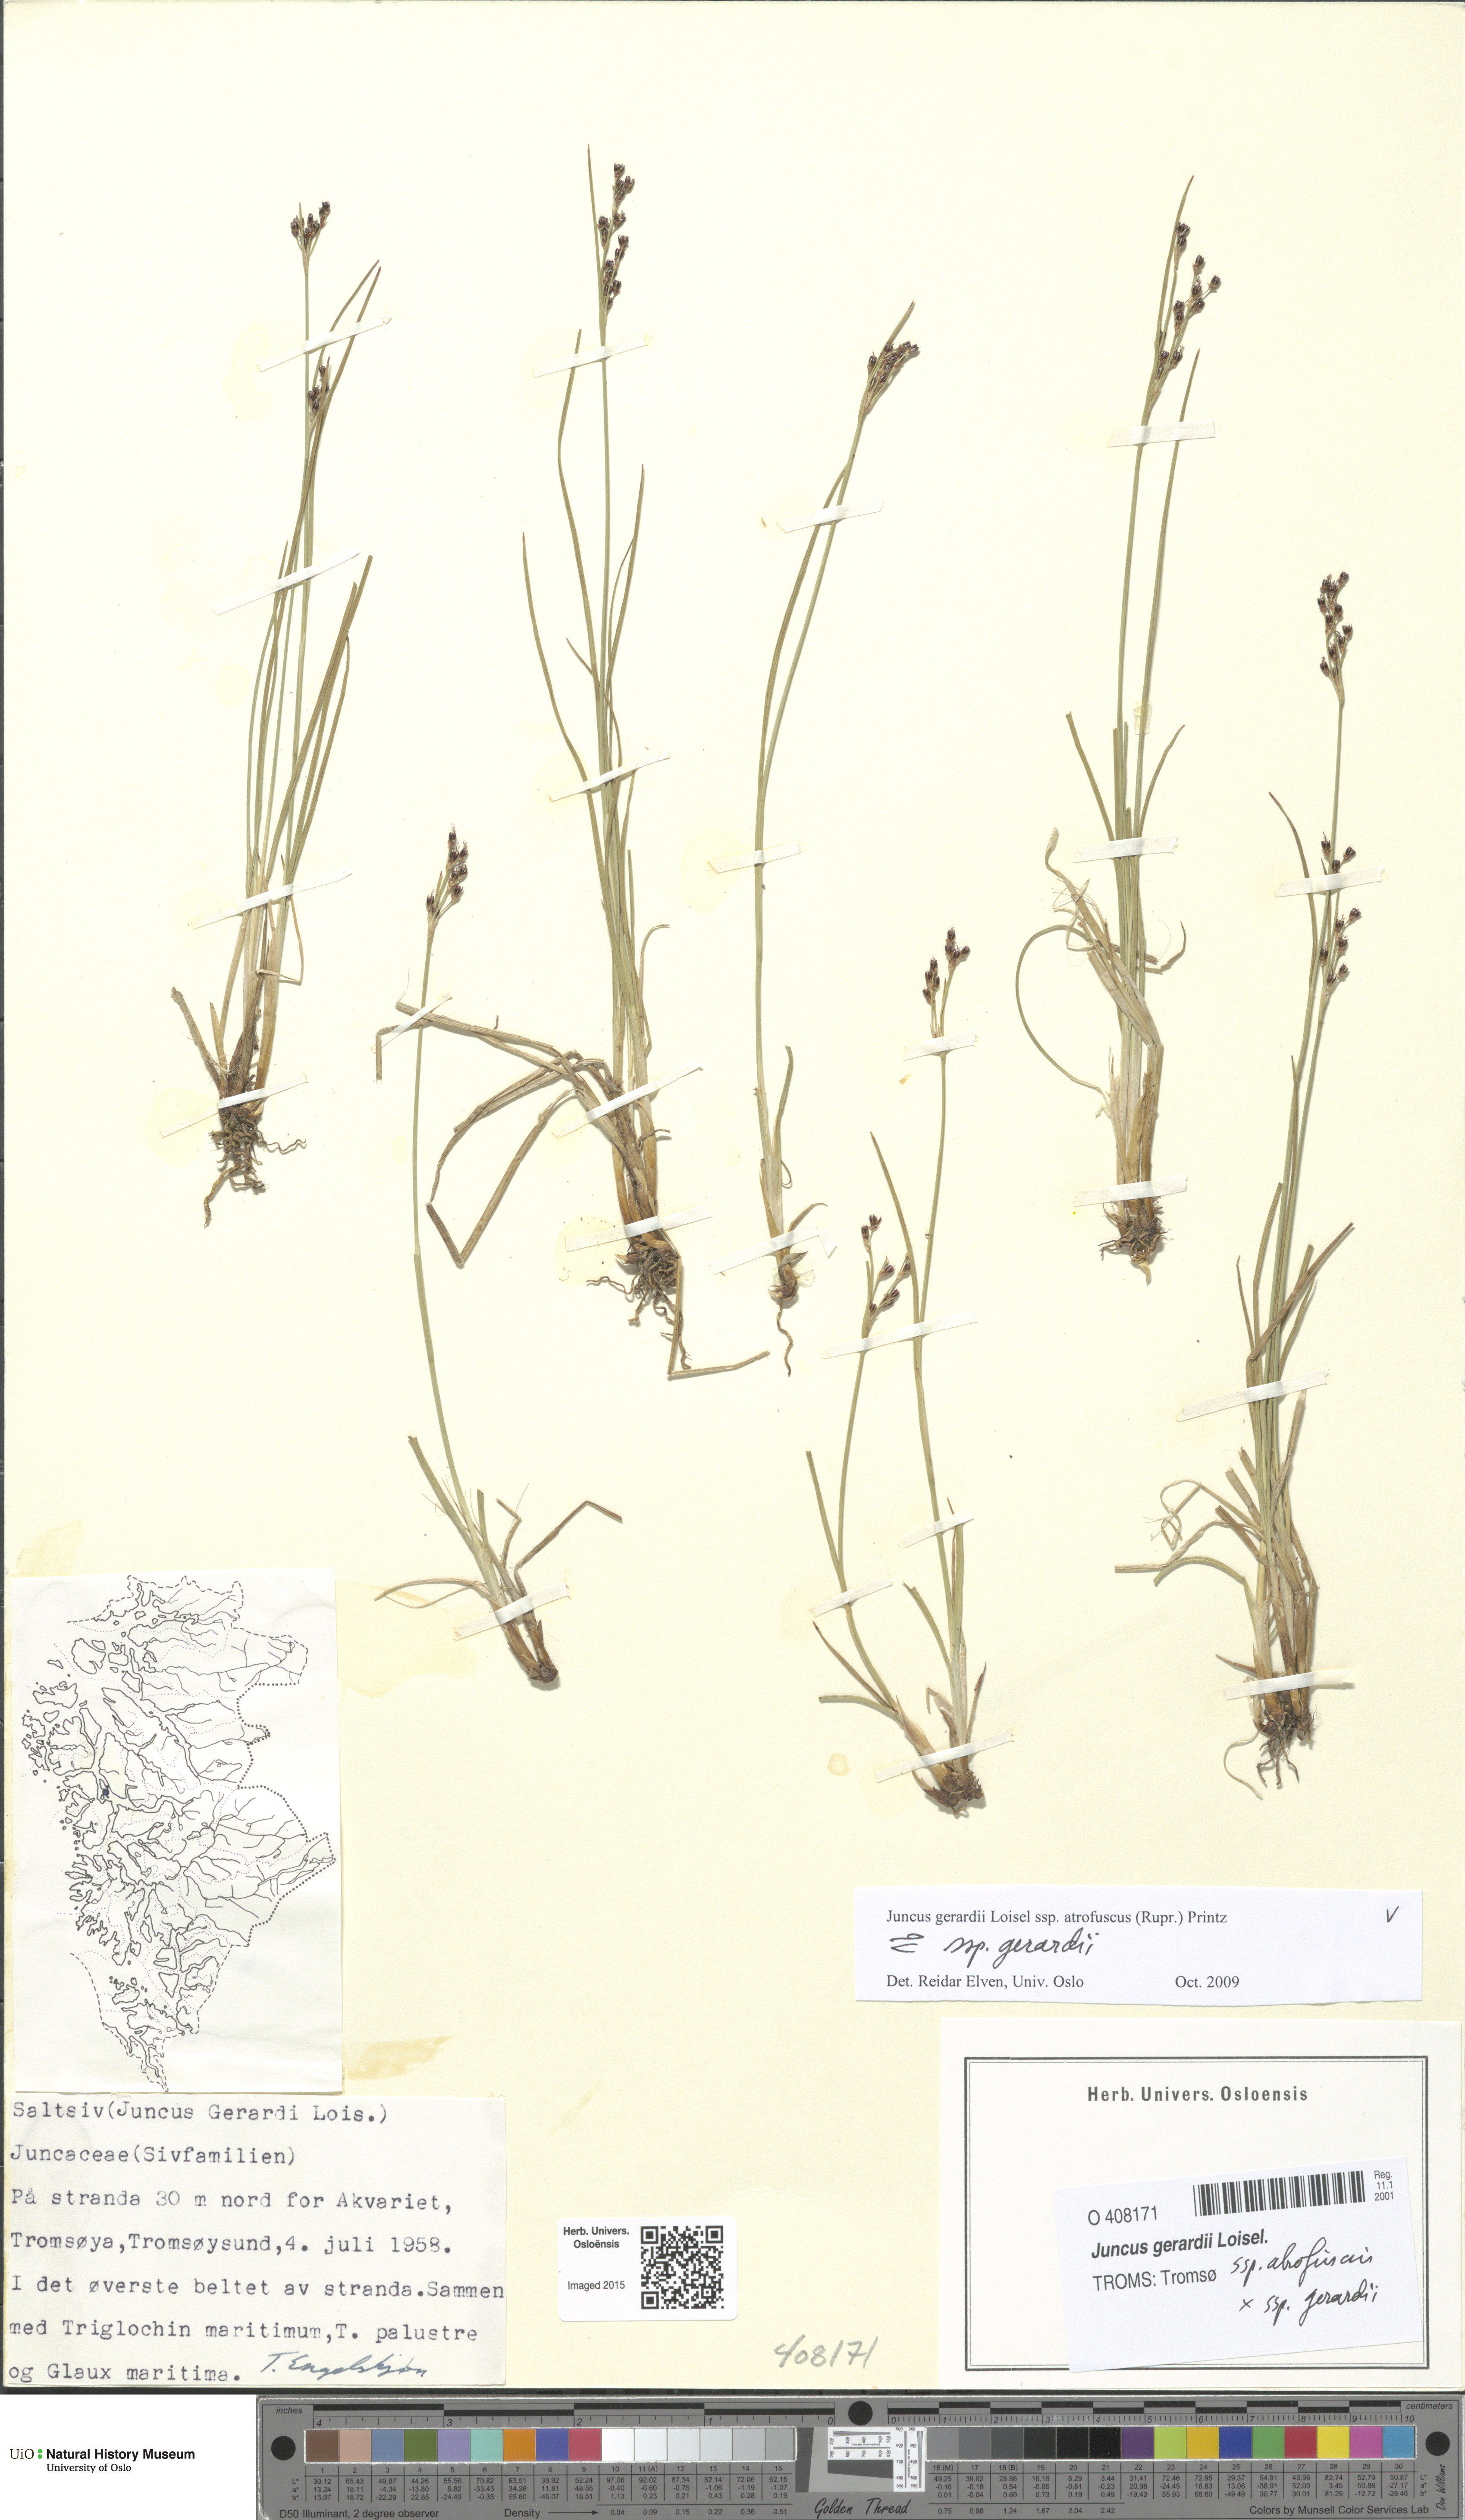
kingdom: Plantae
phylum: Tracheophyta
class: Liliopsida
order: Poales
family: Juncaceae
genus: Juncus
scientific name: Juncus
